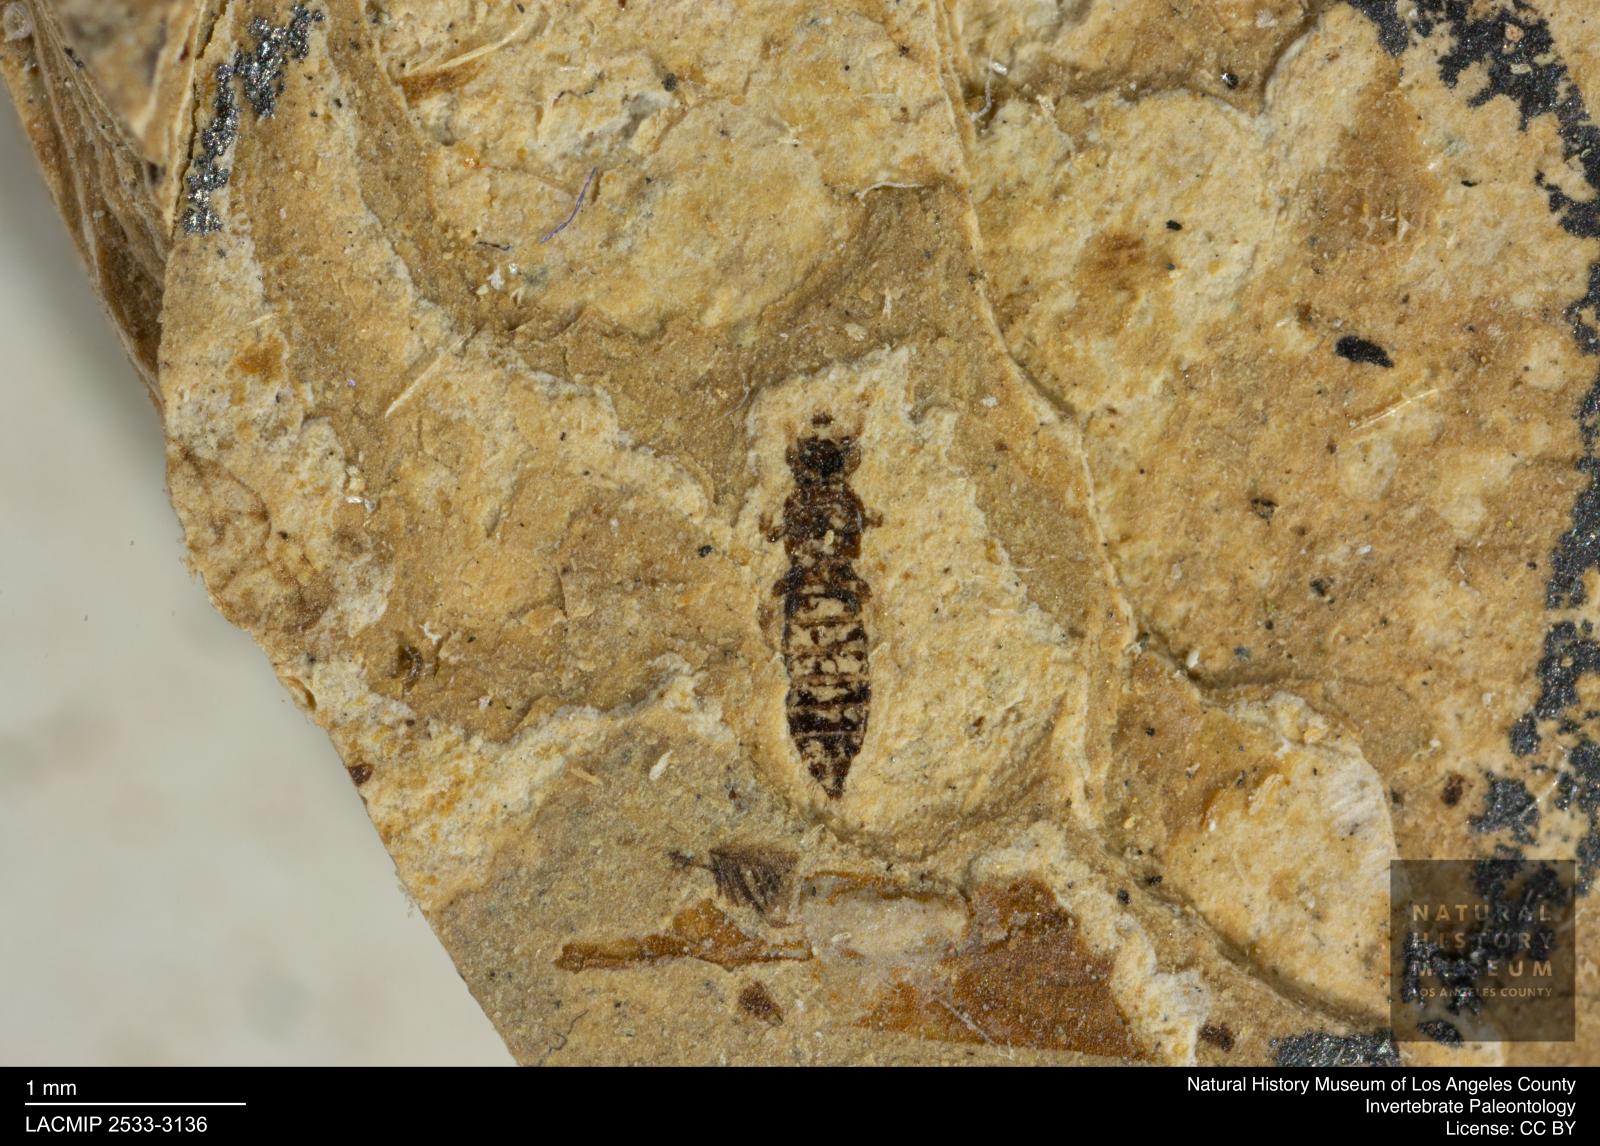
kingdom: Animalia
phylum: Arthropoda
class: Insecta
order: Thysanoptera
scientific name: Thysanoptera
